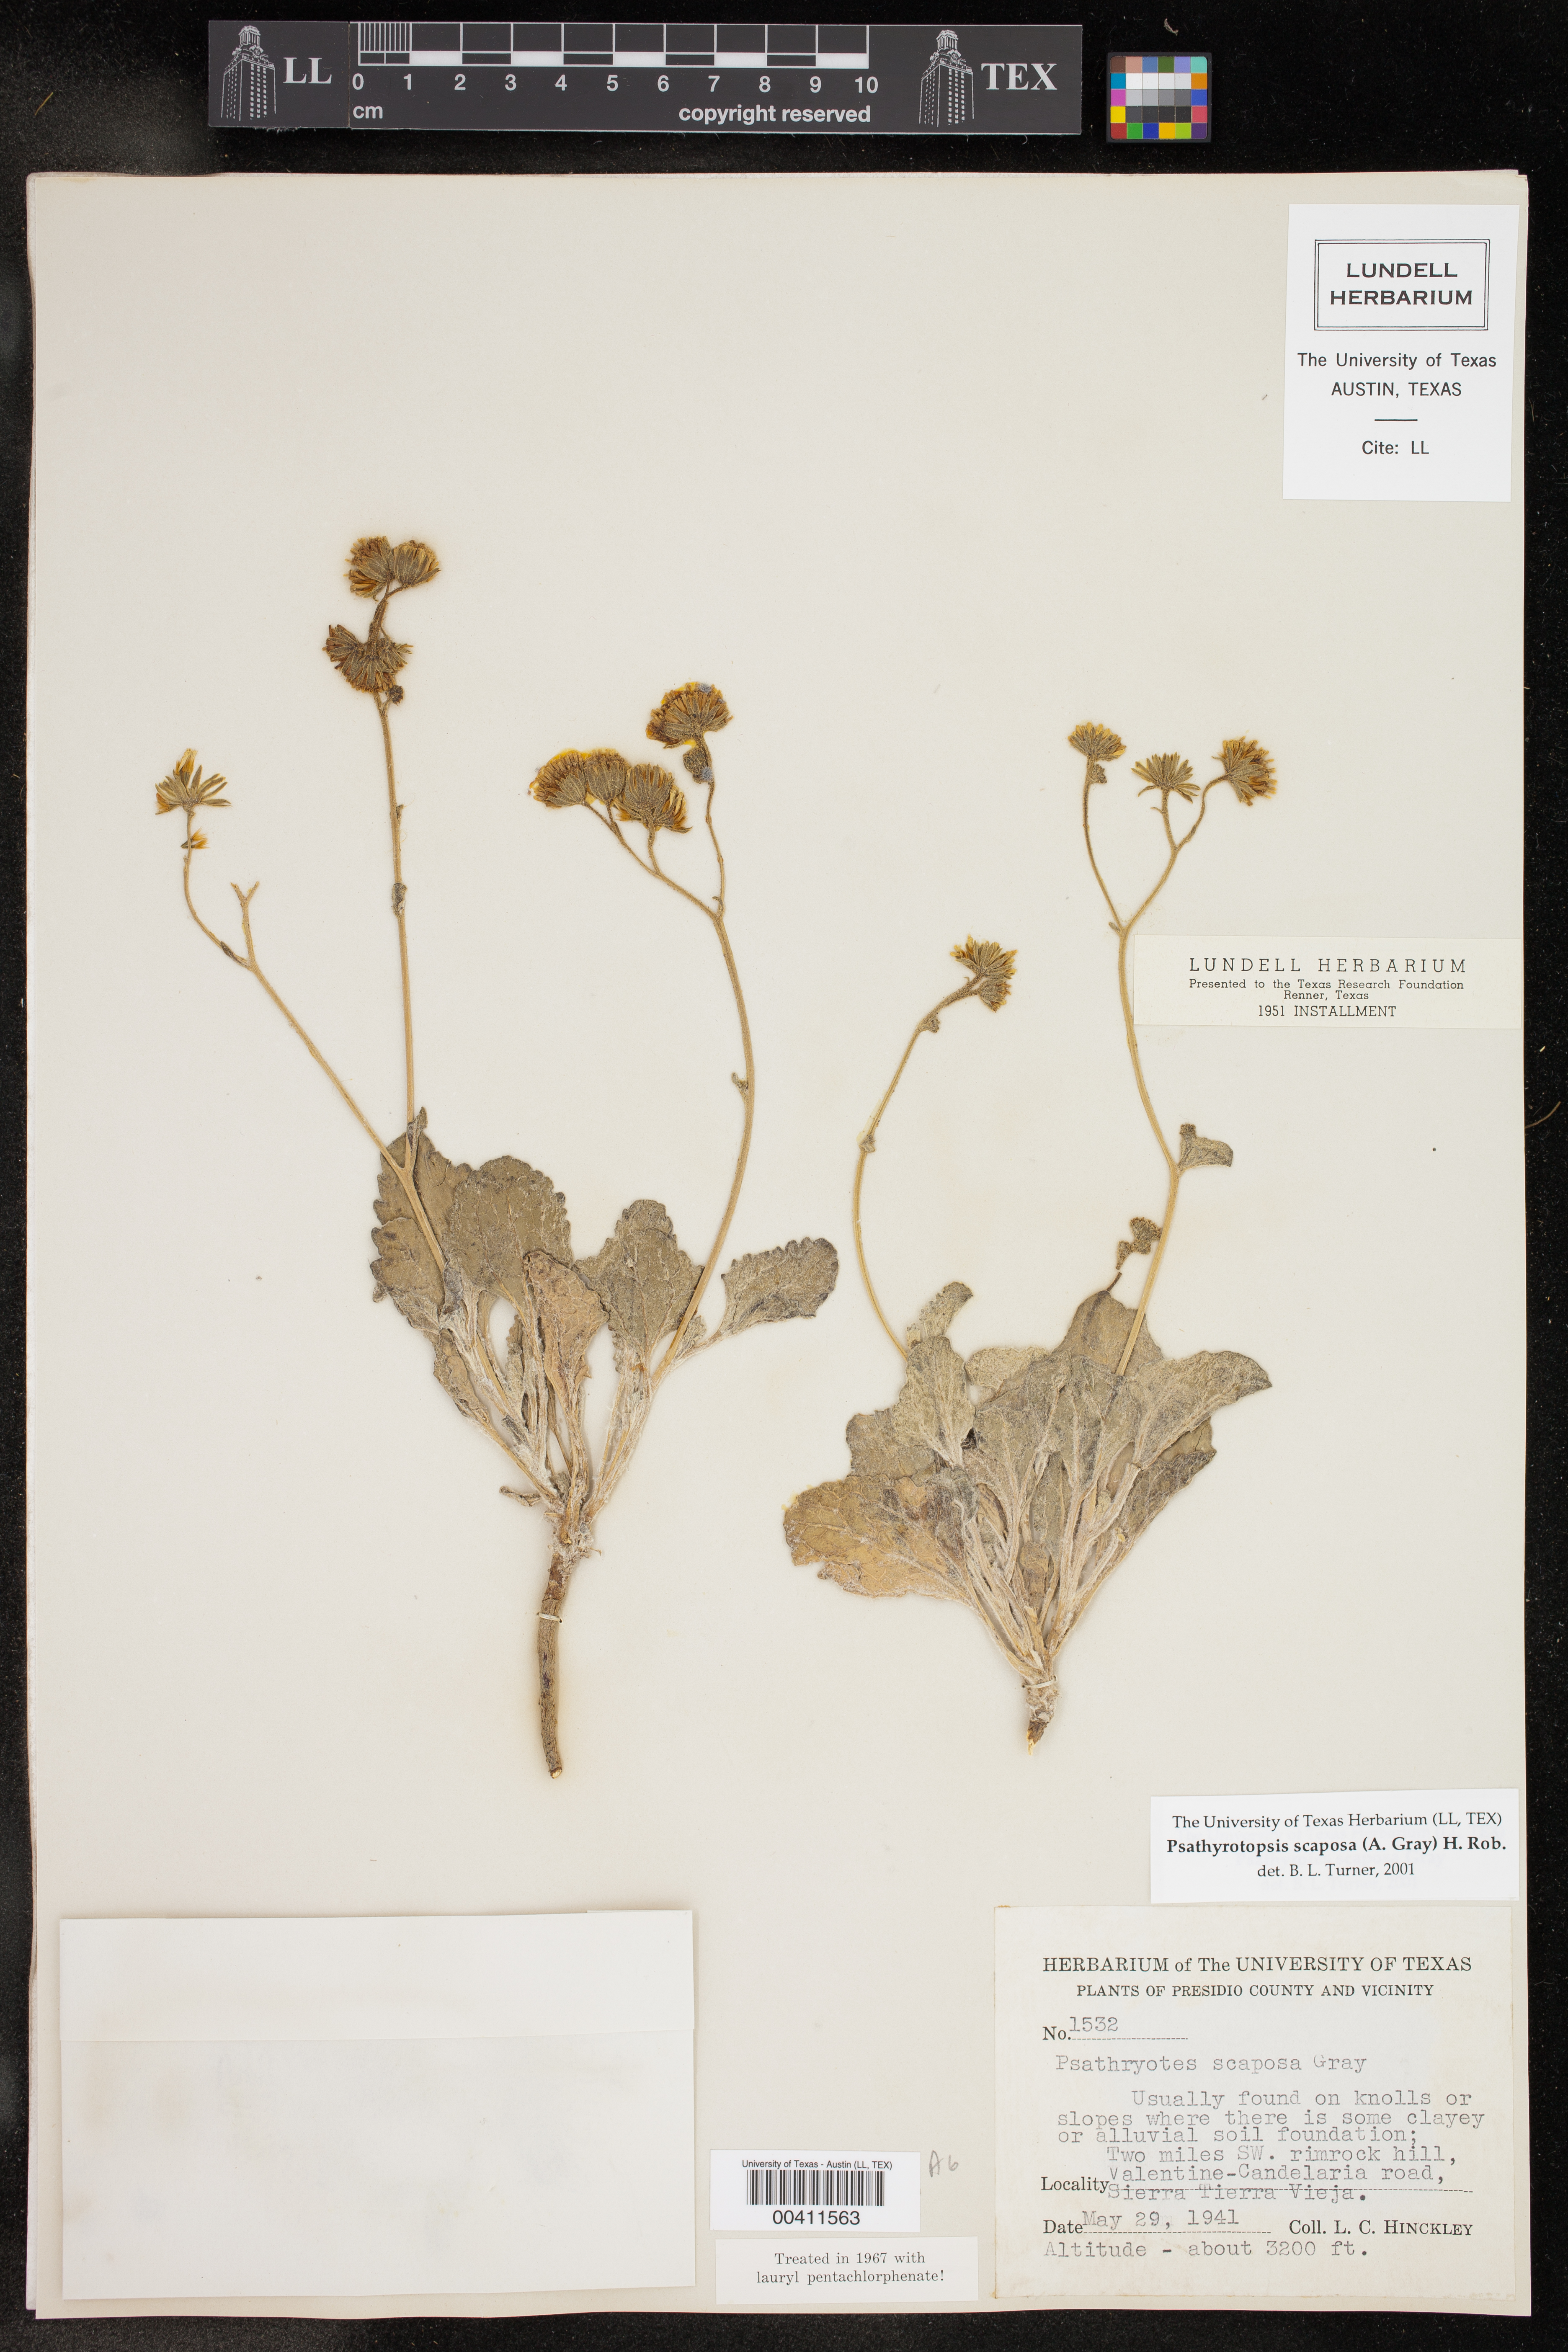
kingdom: Plantae
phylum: Tracheophyta
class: Magnoliopsida
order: Asterales
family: Asteraceae
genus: Psathyrotopsis
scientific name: Psathyrotopsis scaposa
